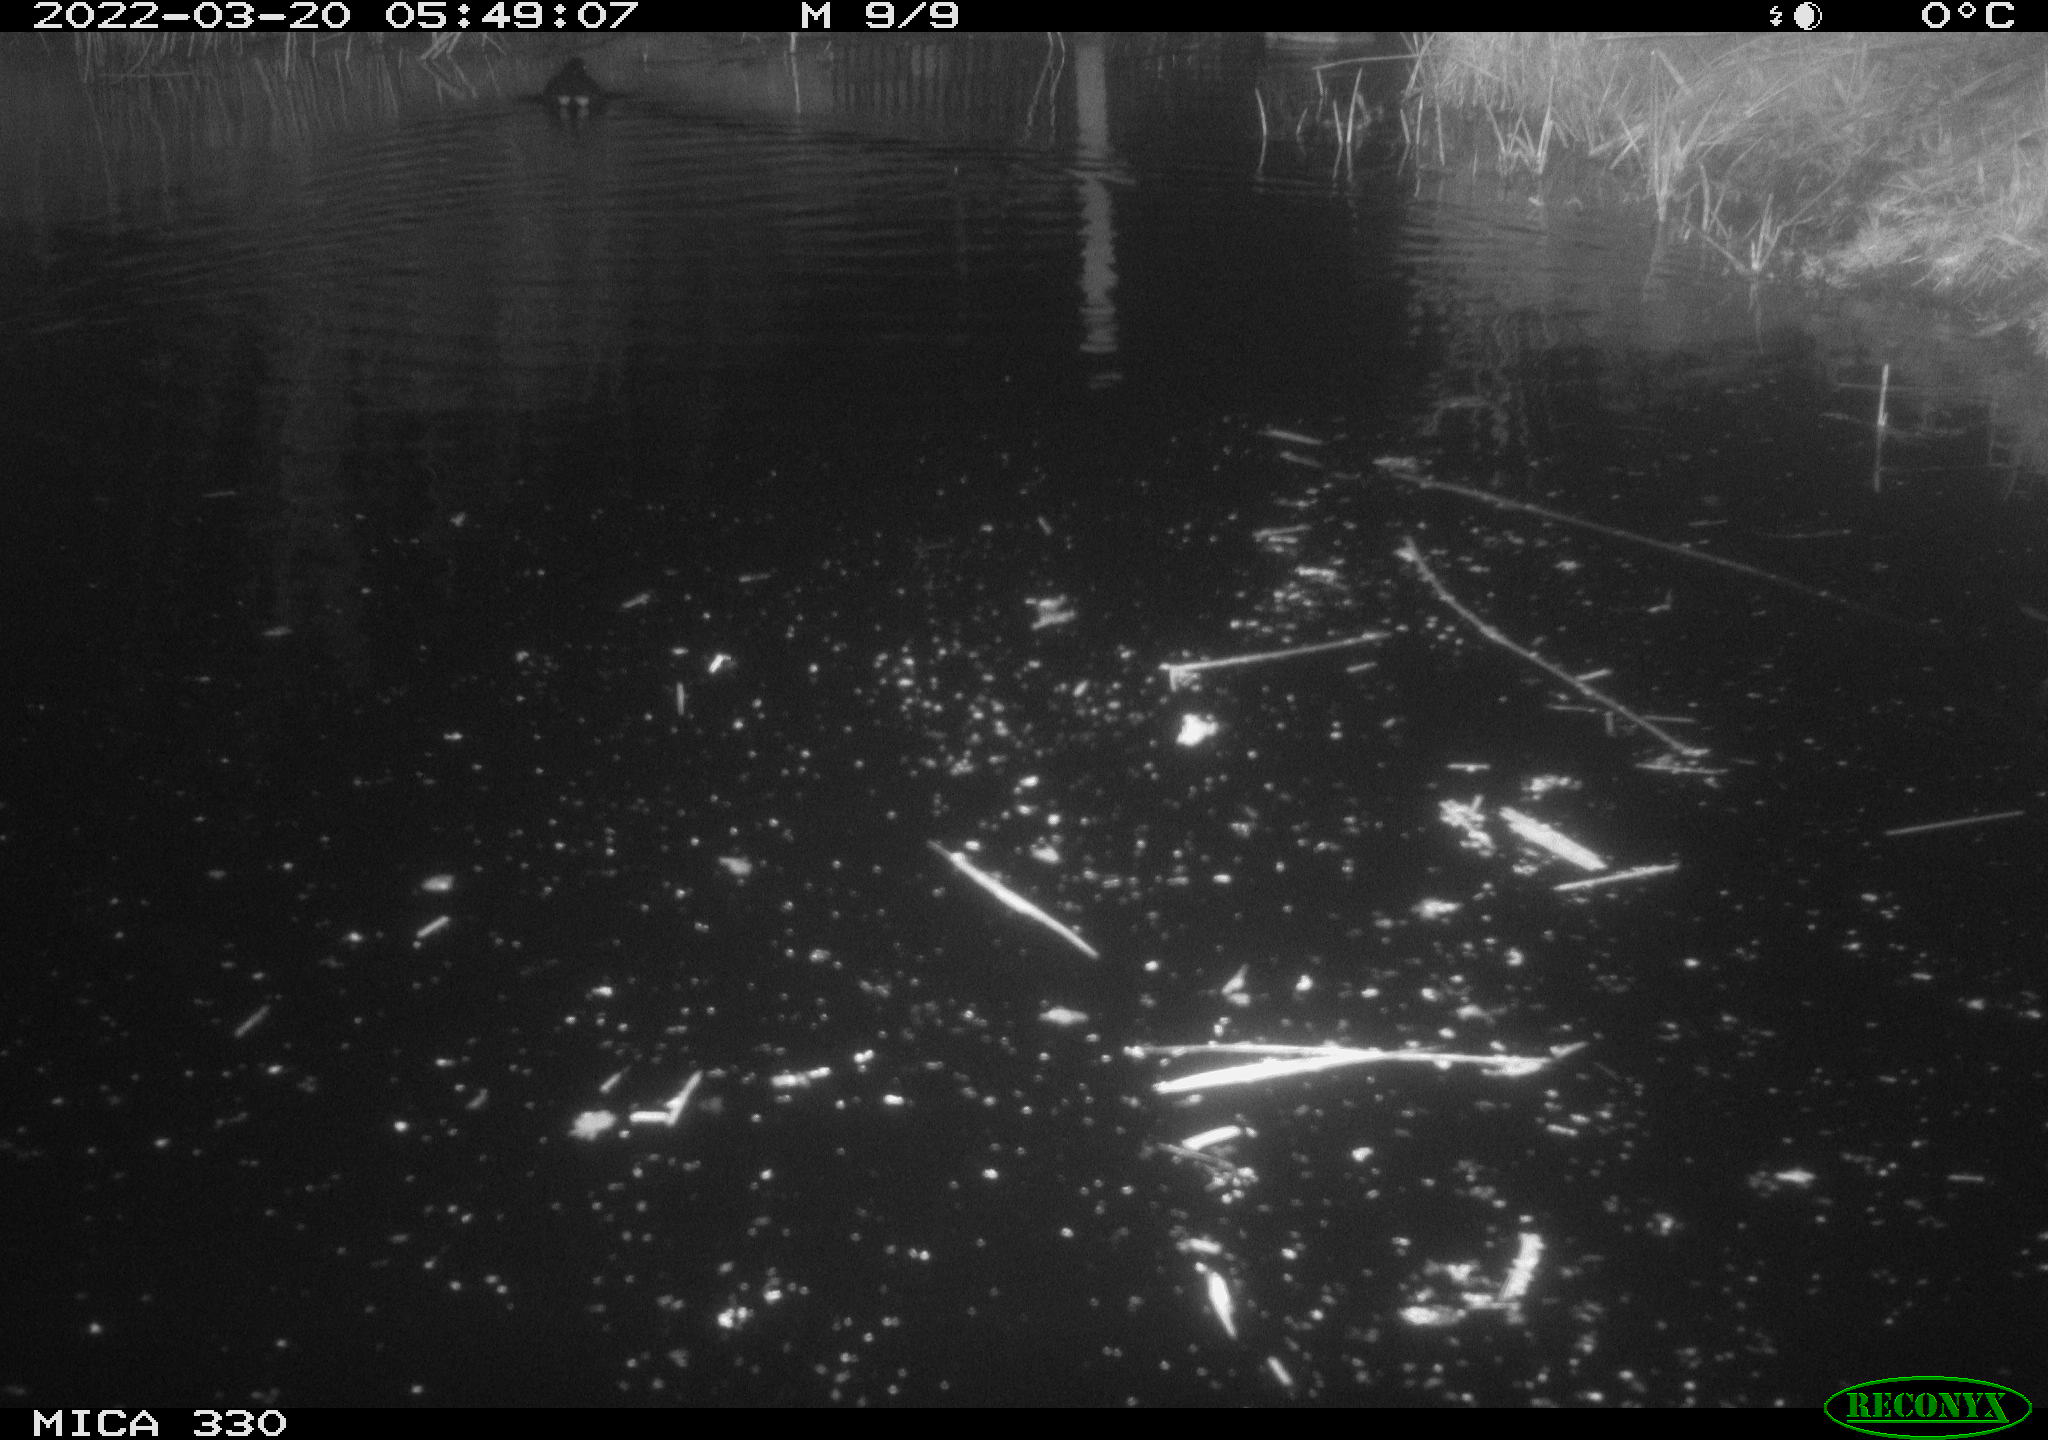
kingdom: Animalia
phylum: Chordata
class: Aves
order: Gruiformes
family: Rallidae
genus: Gallinula
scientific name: Gallinula chloropus
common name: Common moorhen
